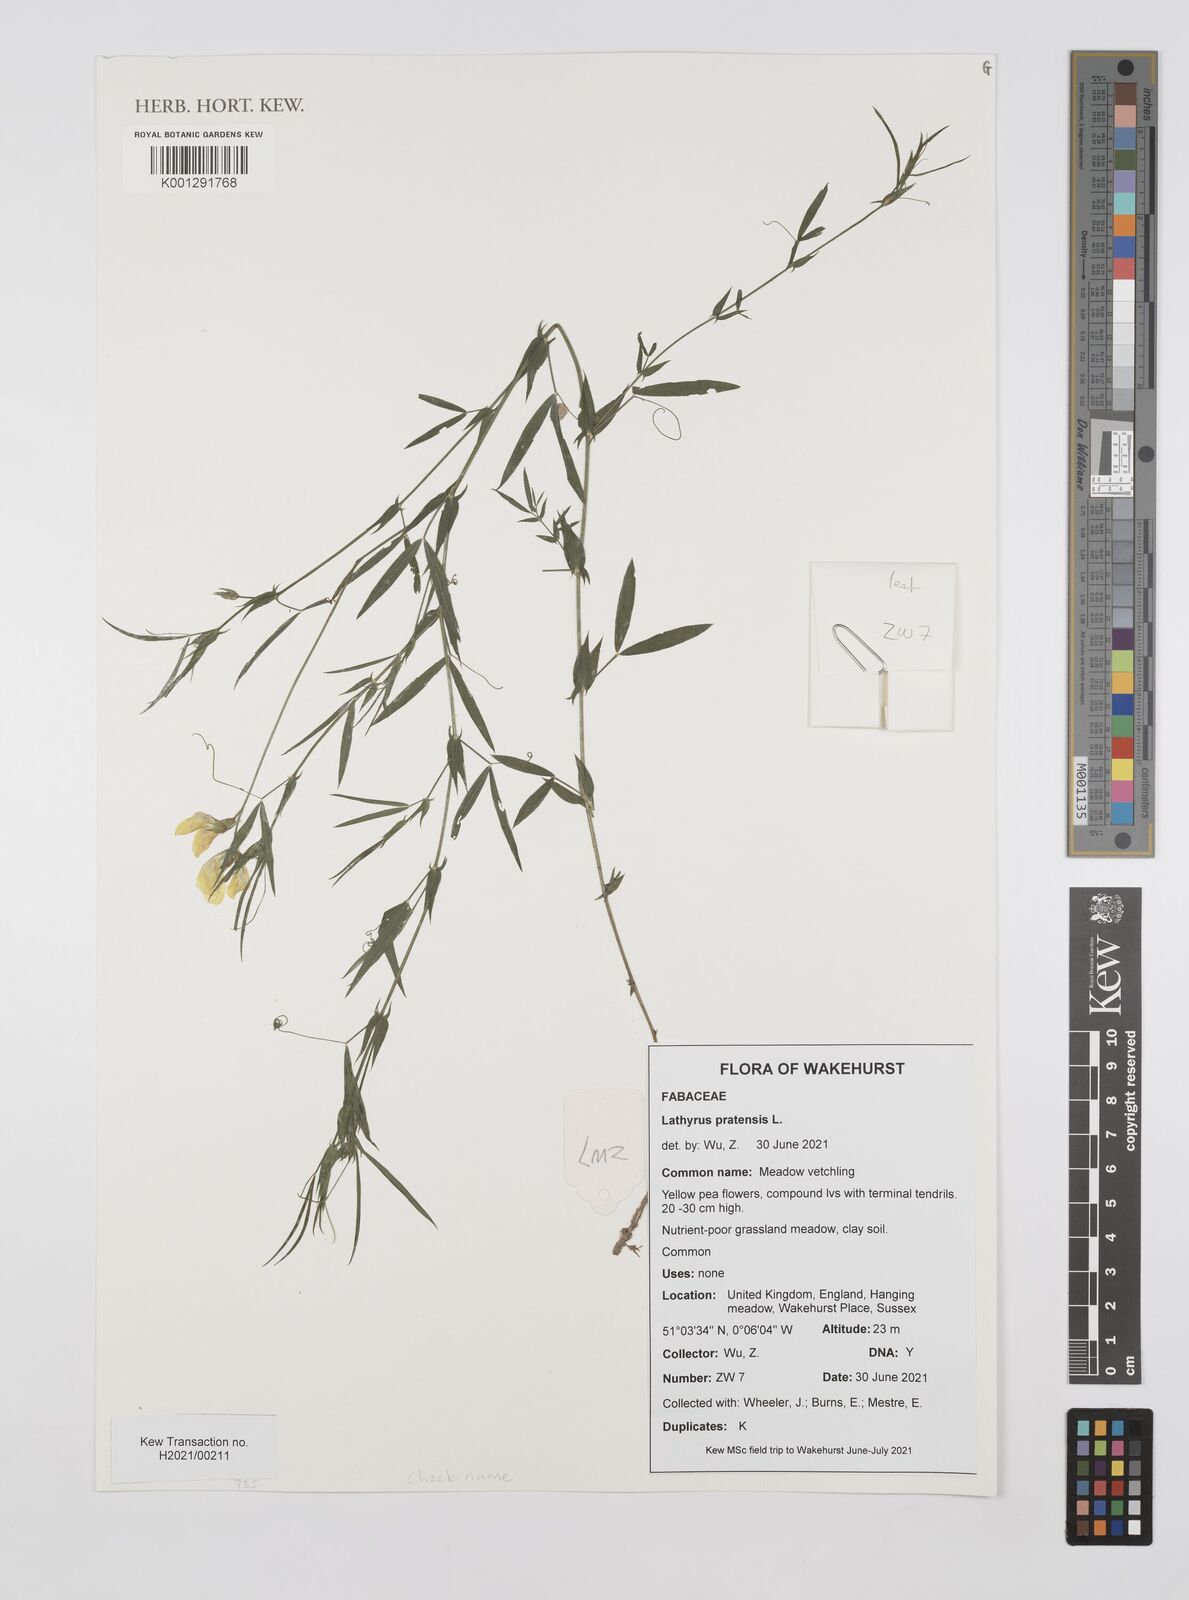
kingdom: Plantae
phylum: Tracheophyta
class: Magnoliopsida
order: Fabales
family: Fabaceae
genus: Lathyrus
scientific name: Lathyrus pratensis
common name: Meadow vetchling
